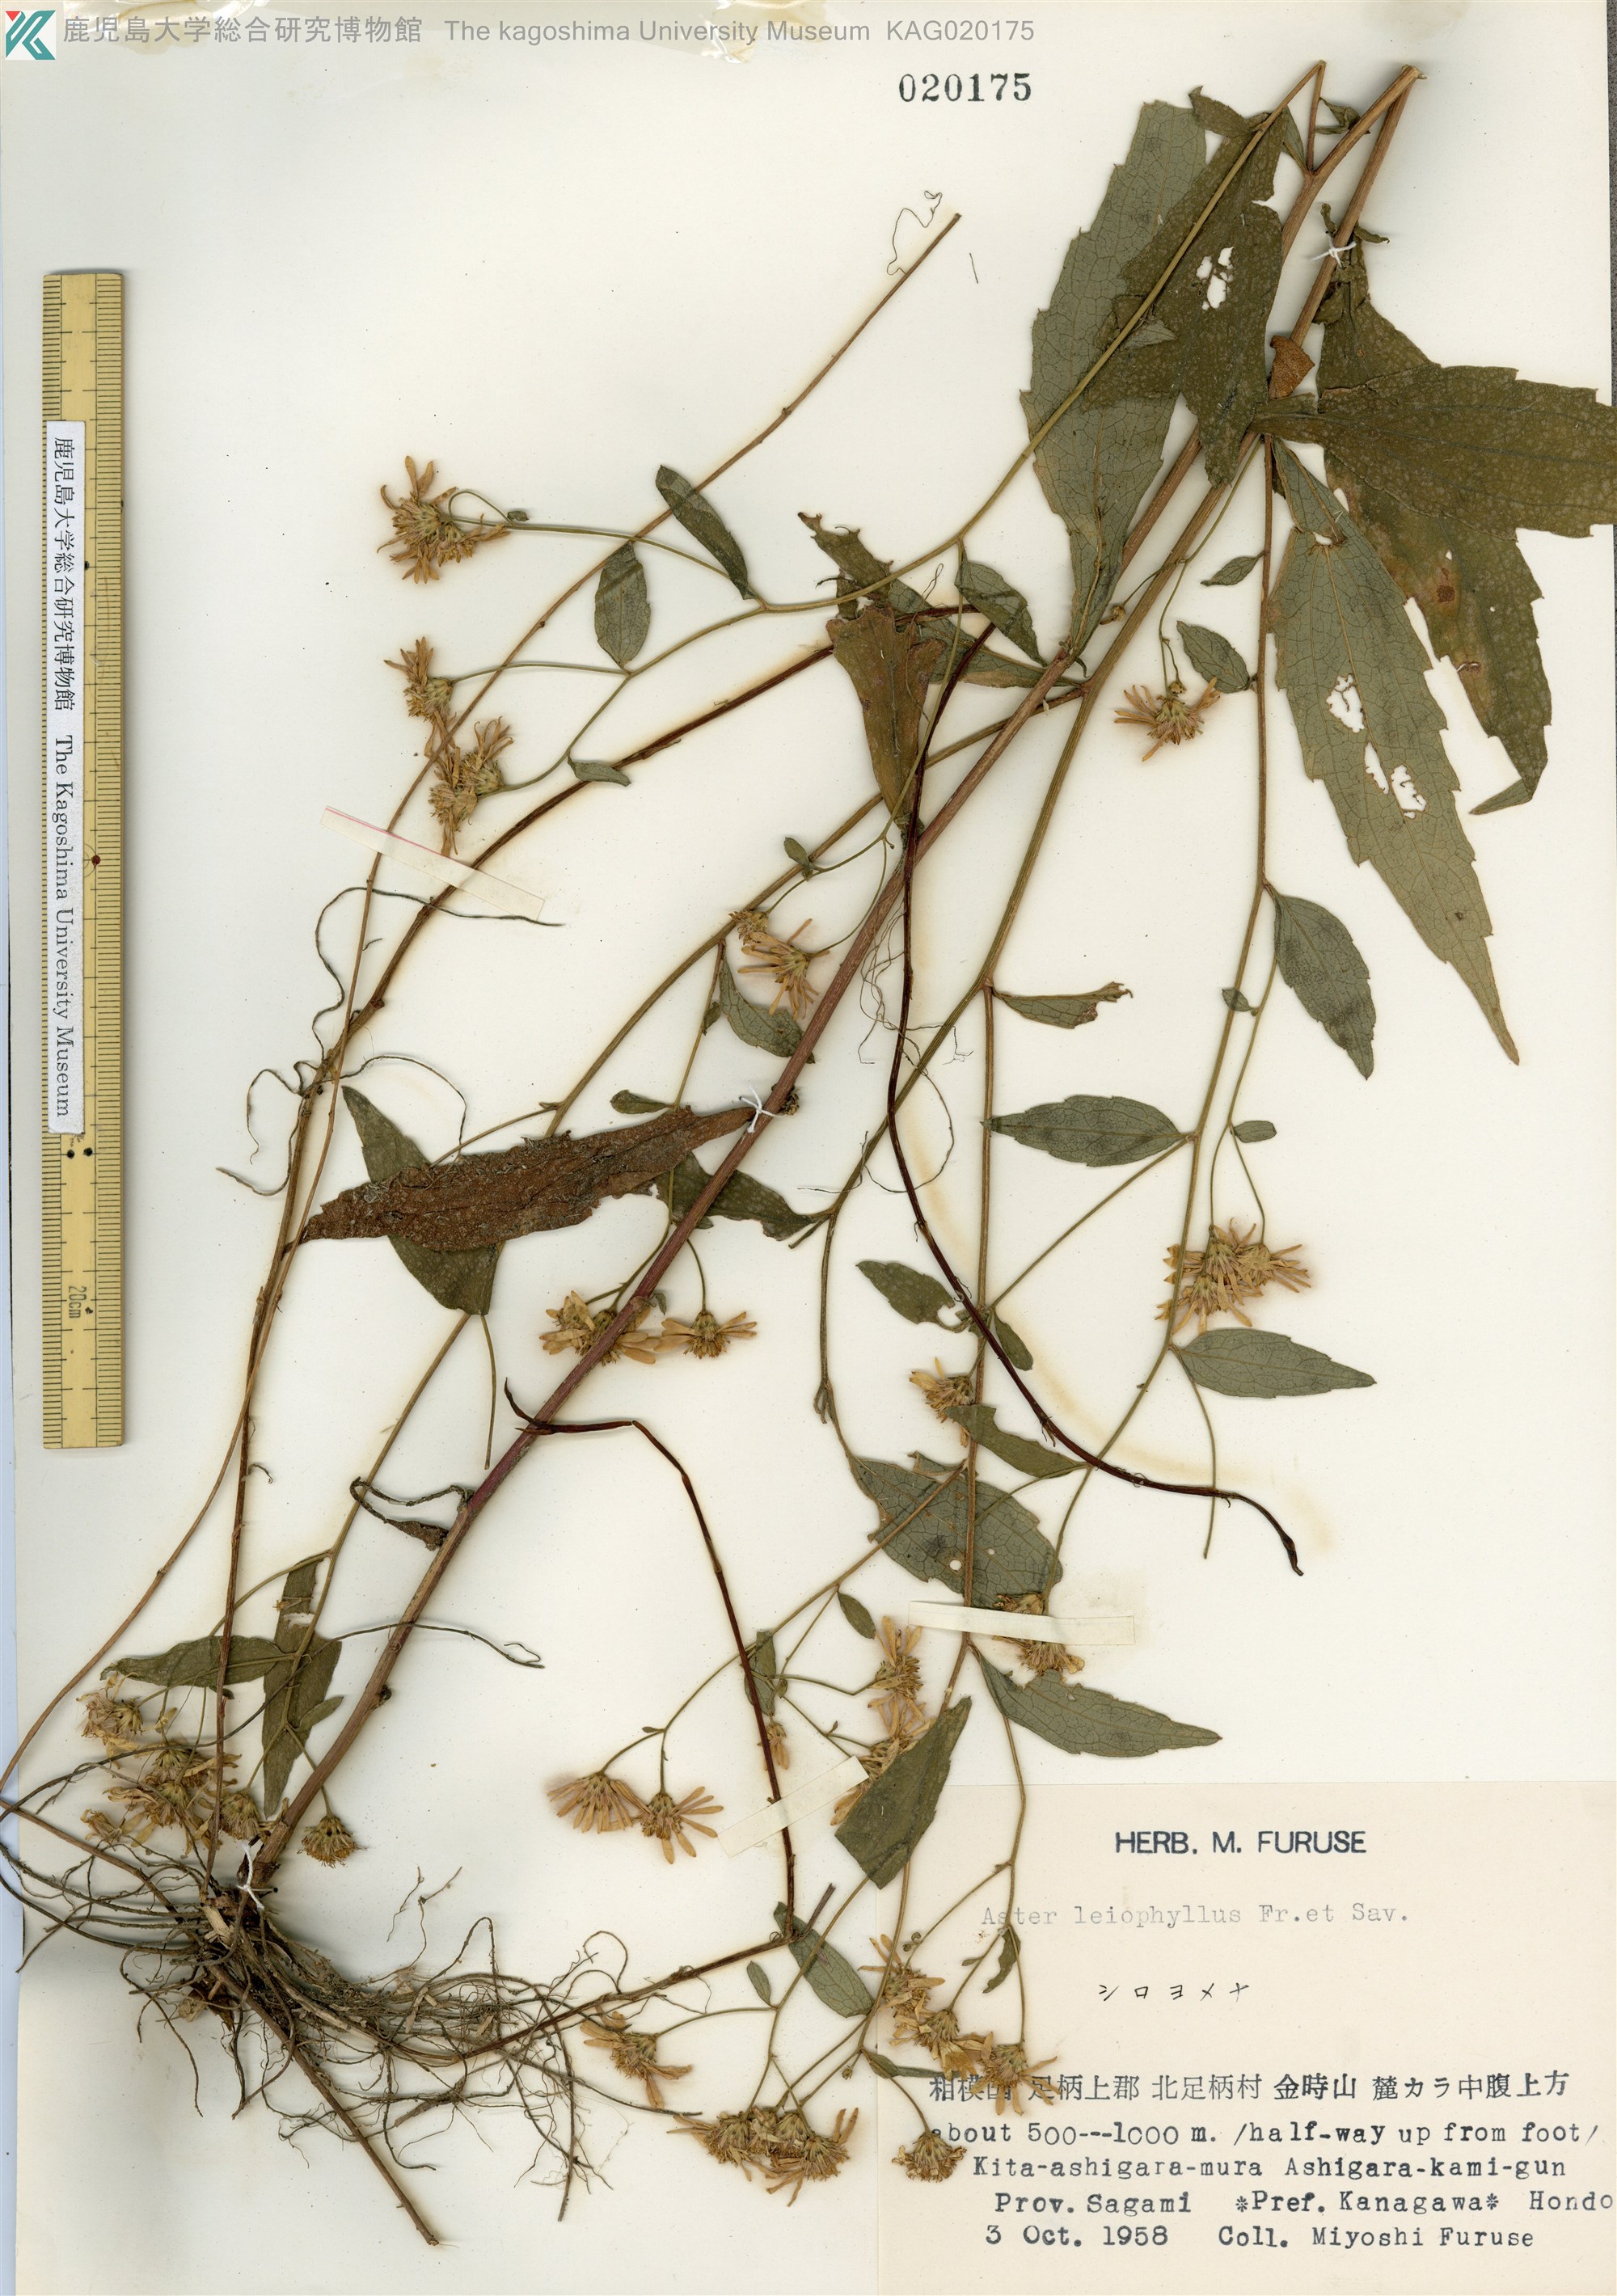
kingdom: Plantae
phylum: Tracheophyta
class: Magnoliopsida
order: Asterales
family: Asteraceae
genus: Aster
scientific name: Aster ageratoides
